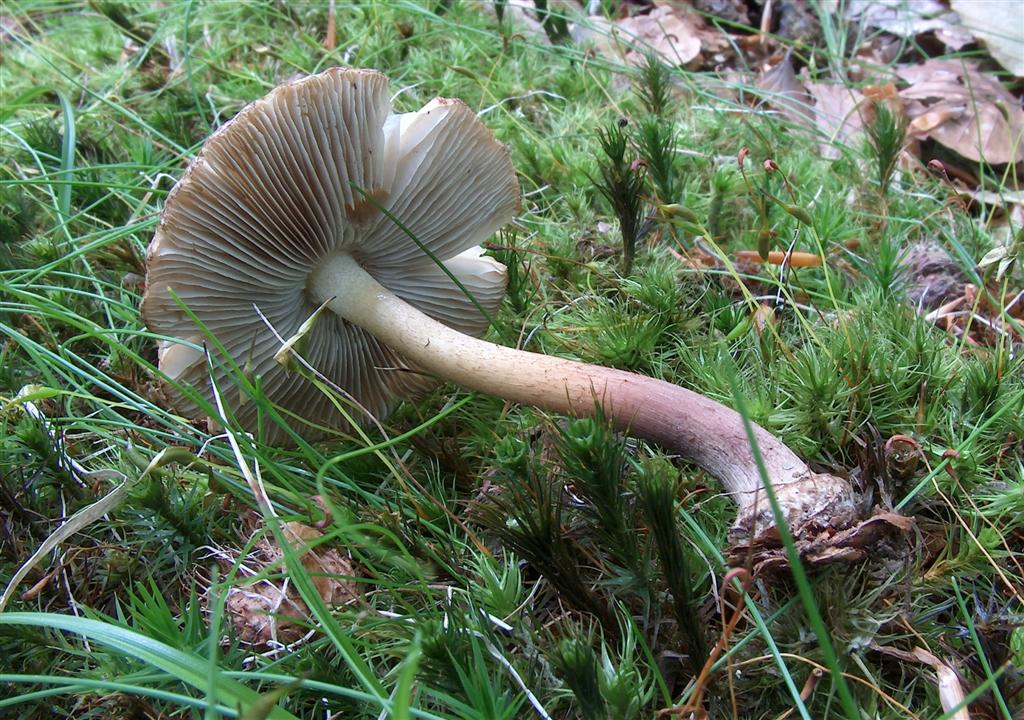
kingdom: Fungi
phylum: Basidiomycota
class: Agaricomycetes
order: Agaricales
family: Inocybaceae
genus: Inocybe
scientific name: Inocybe asterospora
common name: stjernesporet trævlhat
